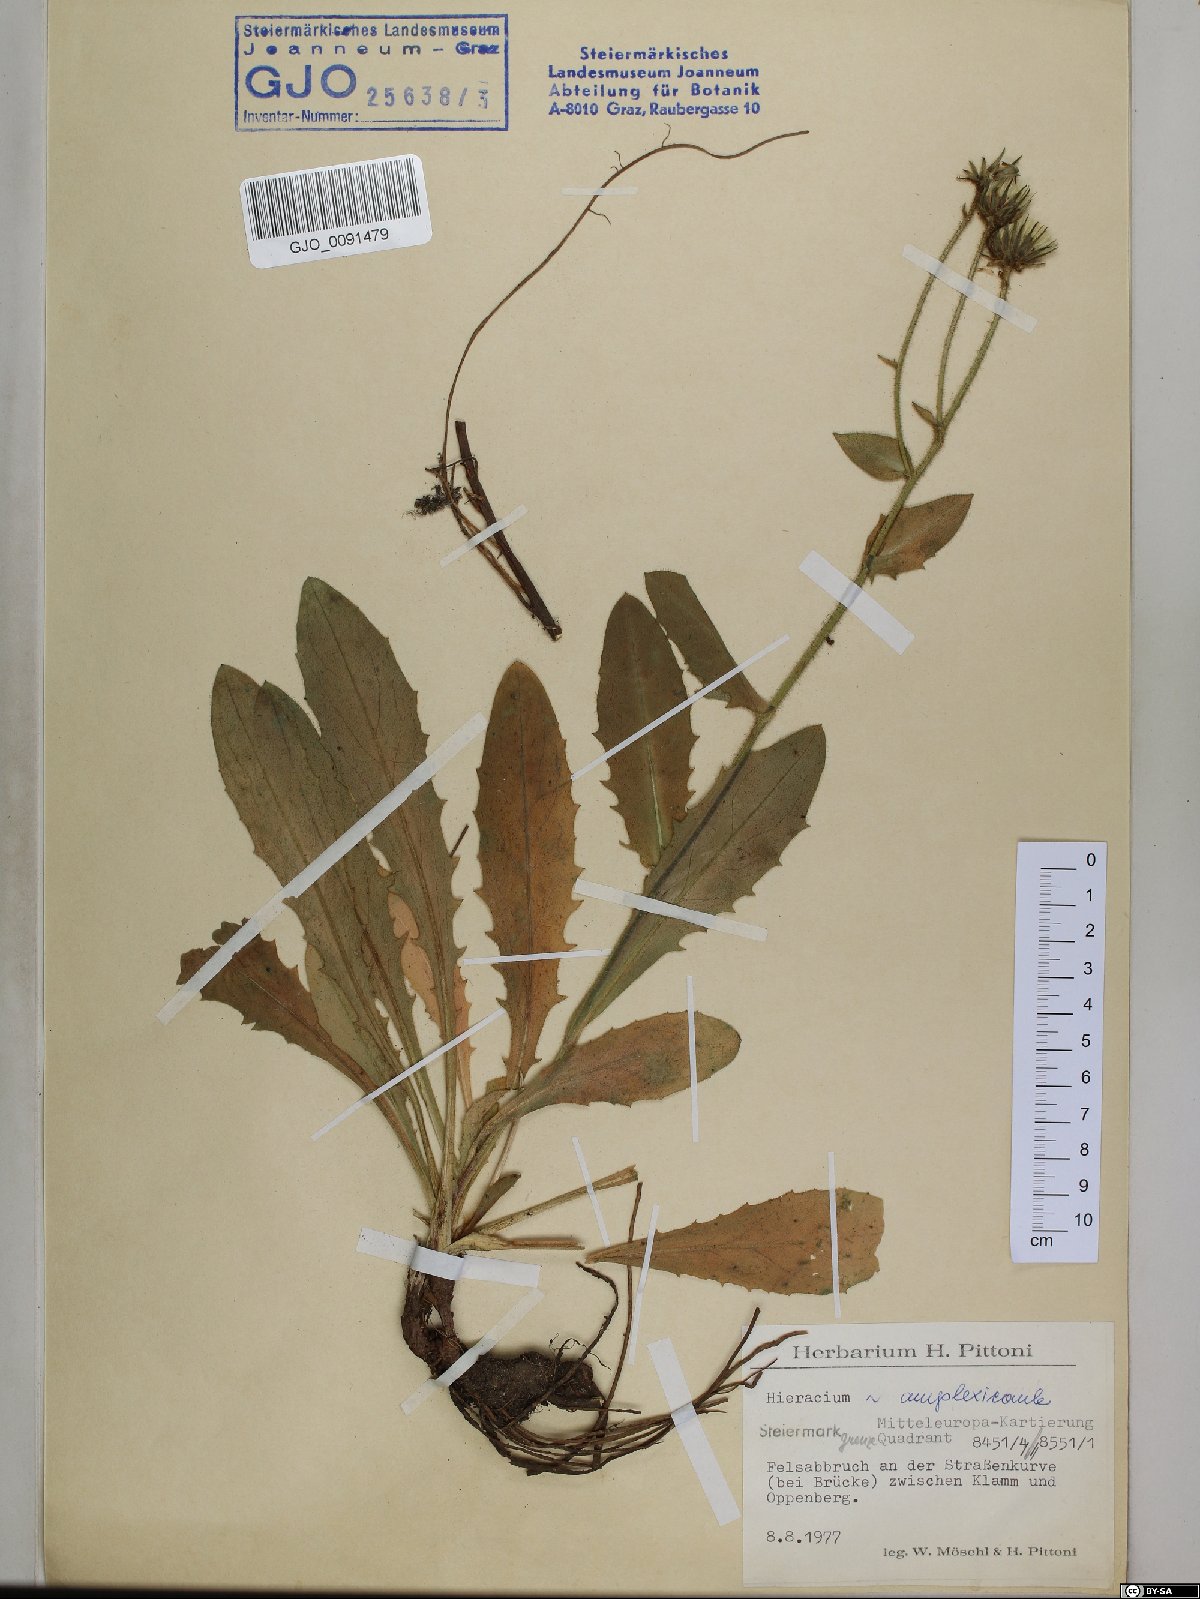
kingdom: Plantae
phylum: Tracheophyta
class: Magnoliopsida
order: Asterales
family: Asteraceae
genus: Hieracium
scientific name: Hieracium amplexicaule
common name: Sticky hawkweed
